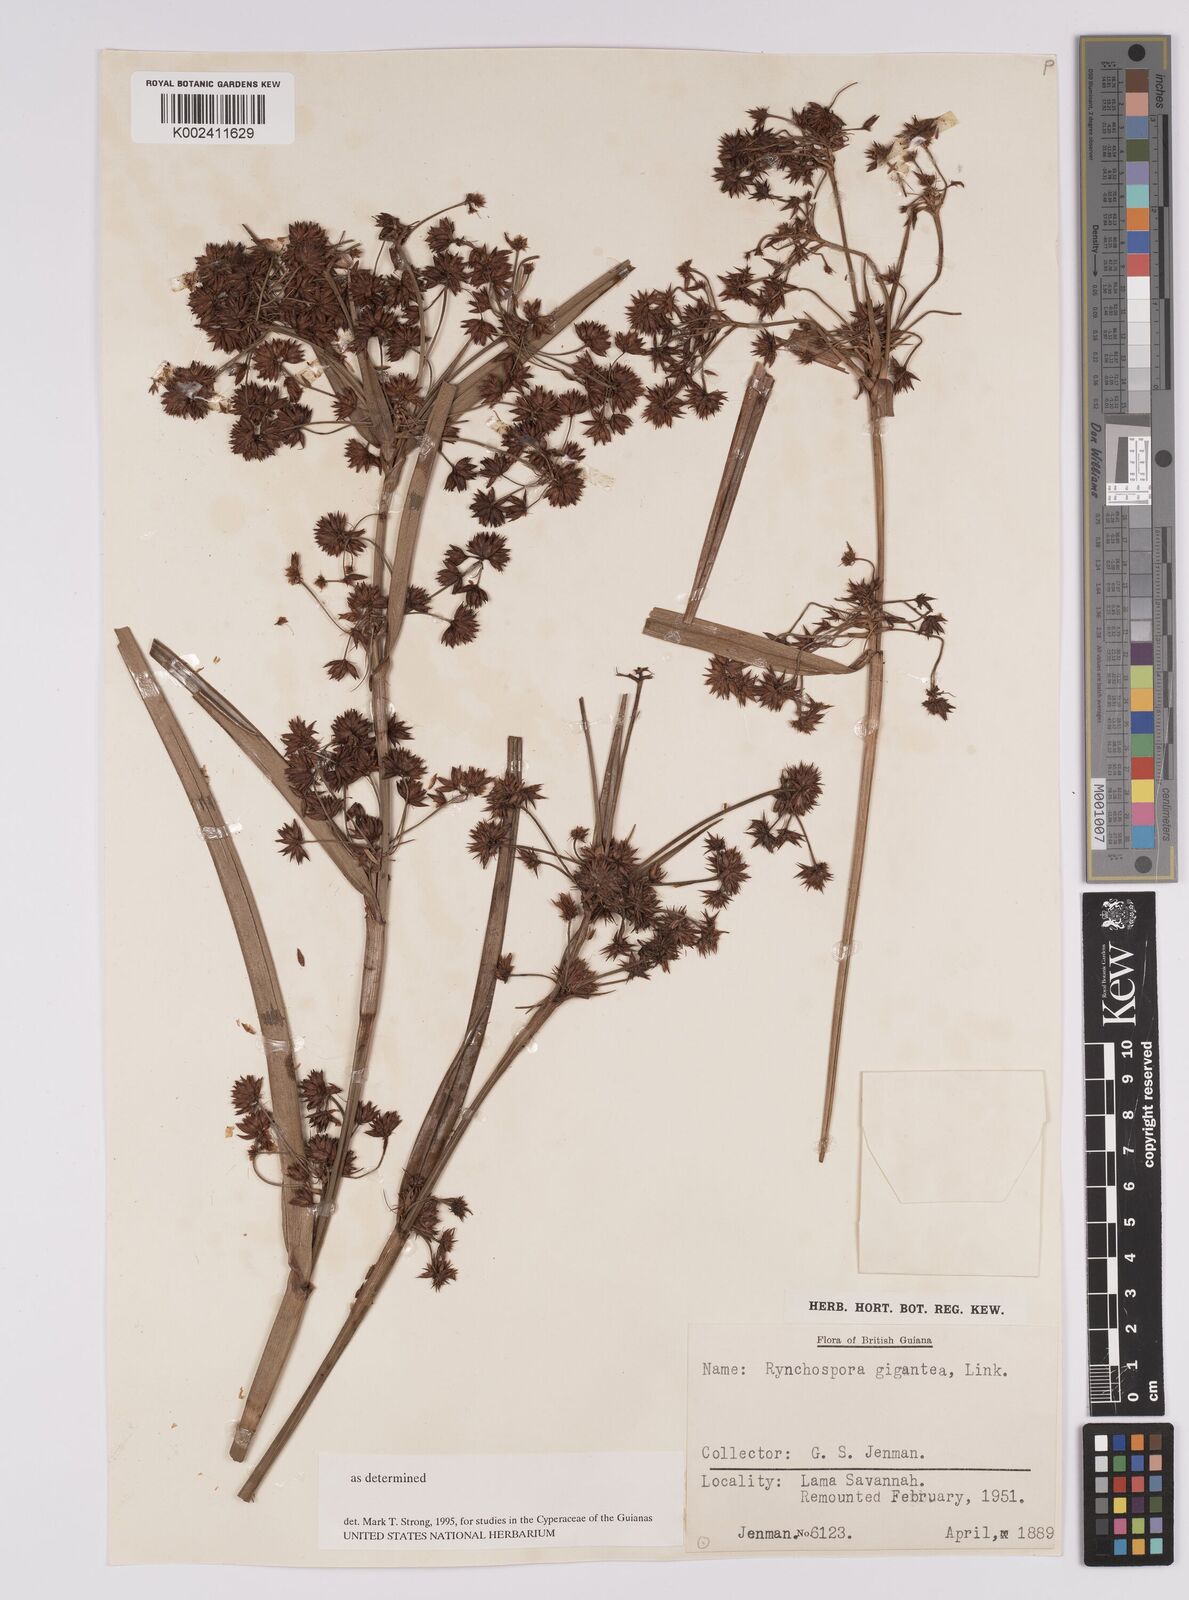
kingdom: Plantae
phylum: Tracheophyta
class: Liliopsida
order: Poales
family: Cyperaceae
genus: Rhynchospora
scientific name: Rhynchospora gigantea
